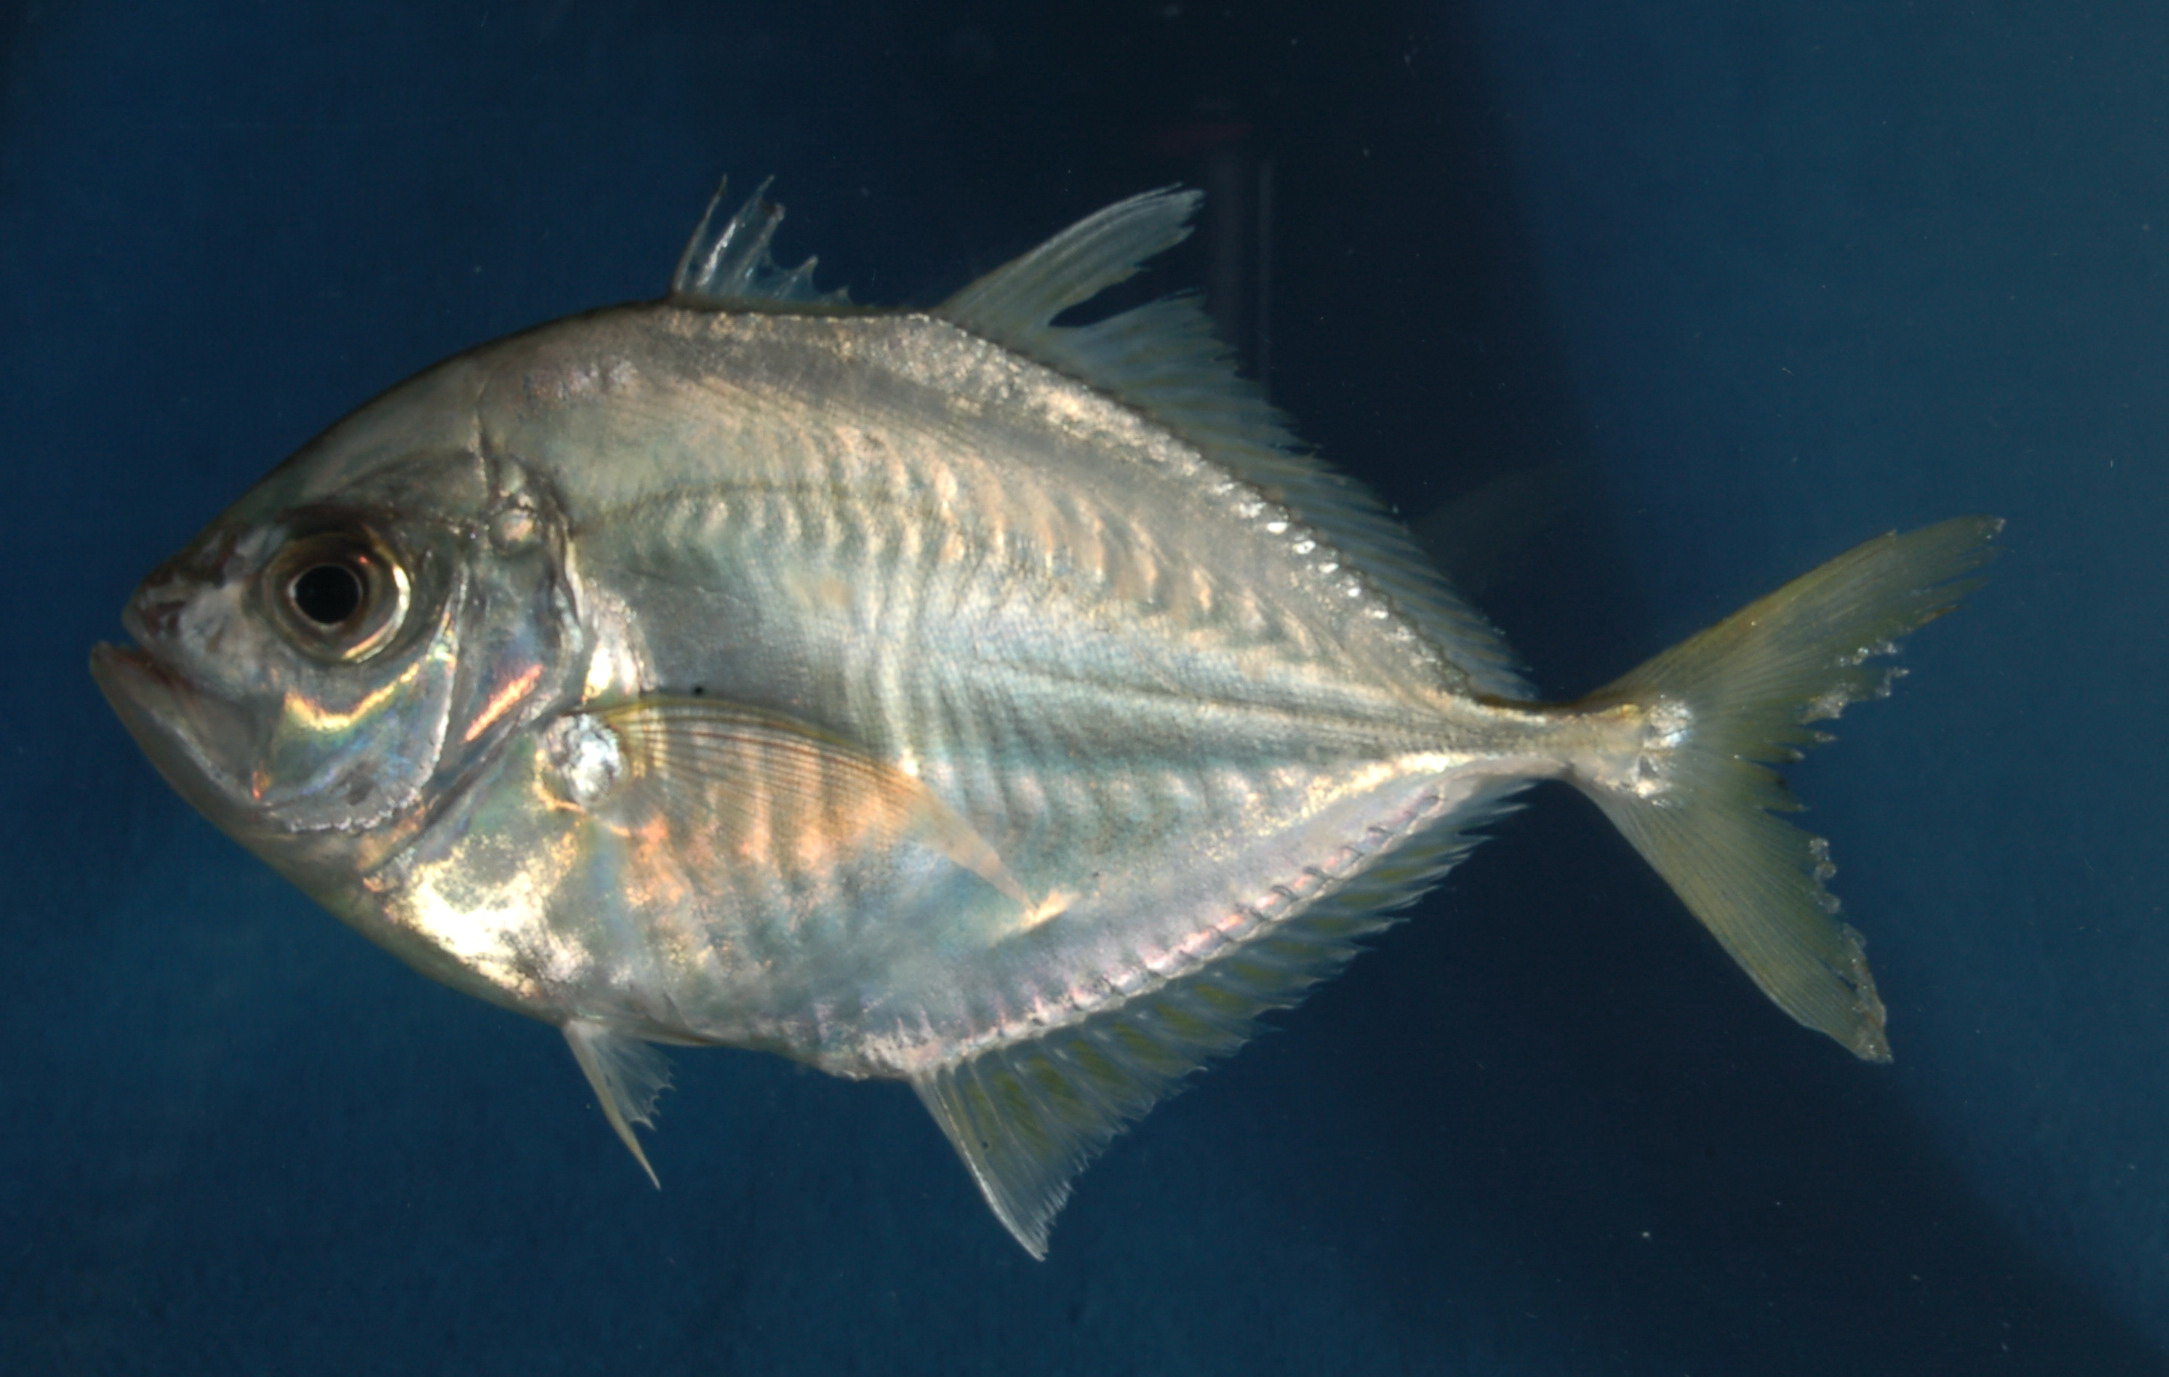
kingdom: Animalia
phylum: Chordata
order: Perciformes
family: Carangidae
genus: Carangoides
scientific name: Carangoides coeruleopinnatus
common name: Coastal trevally
